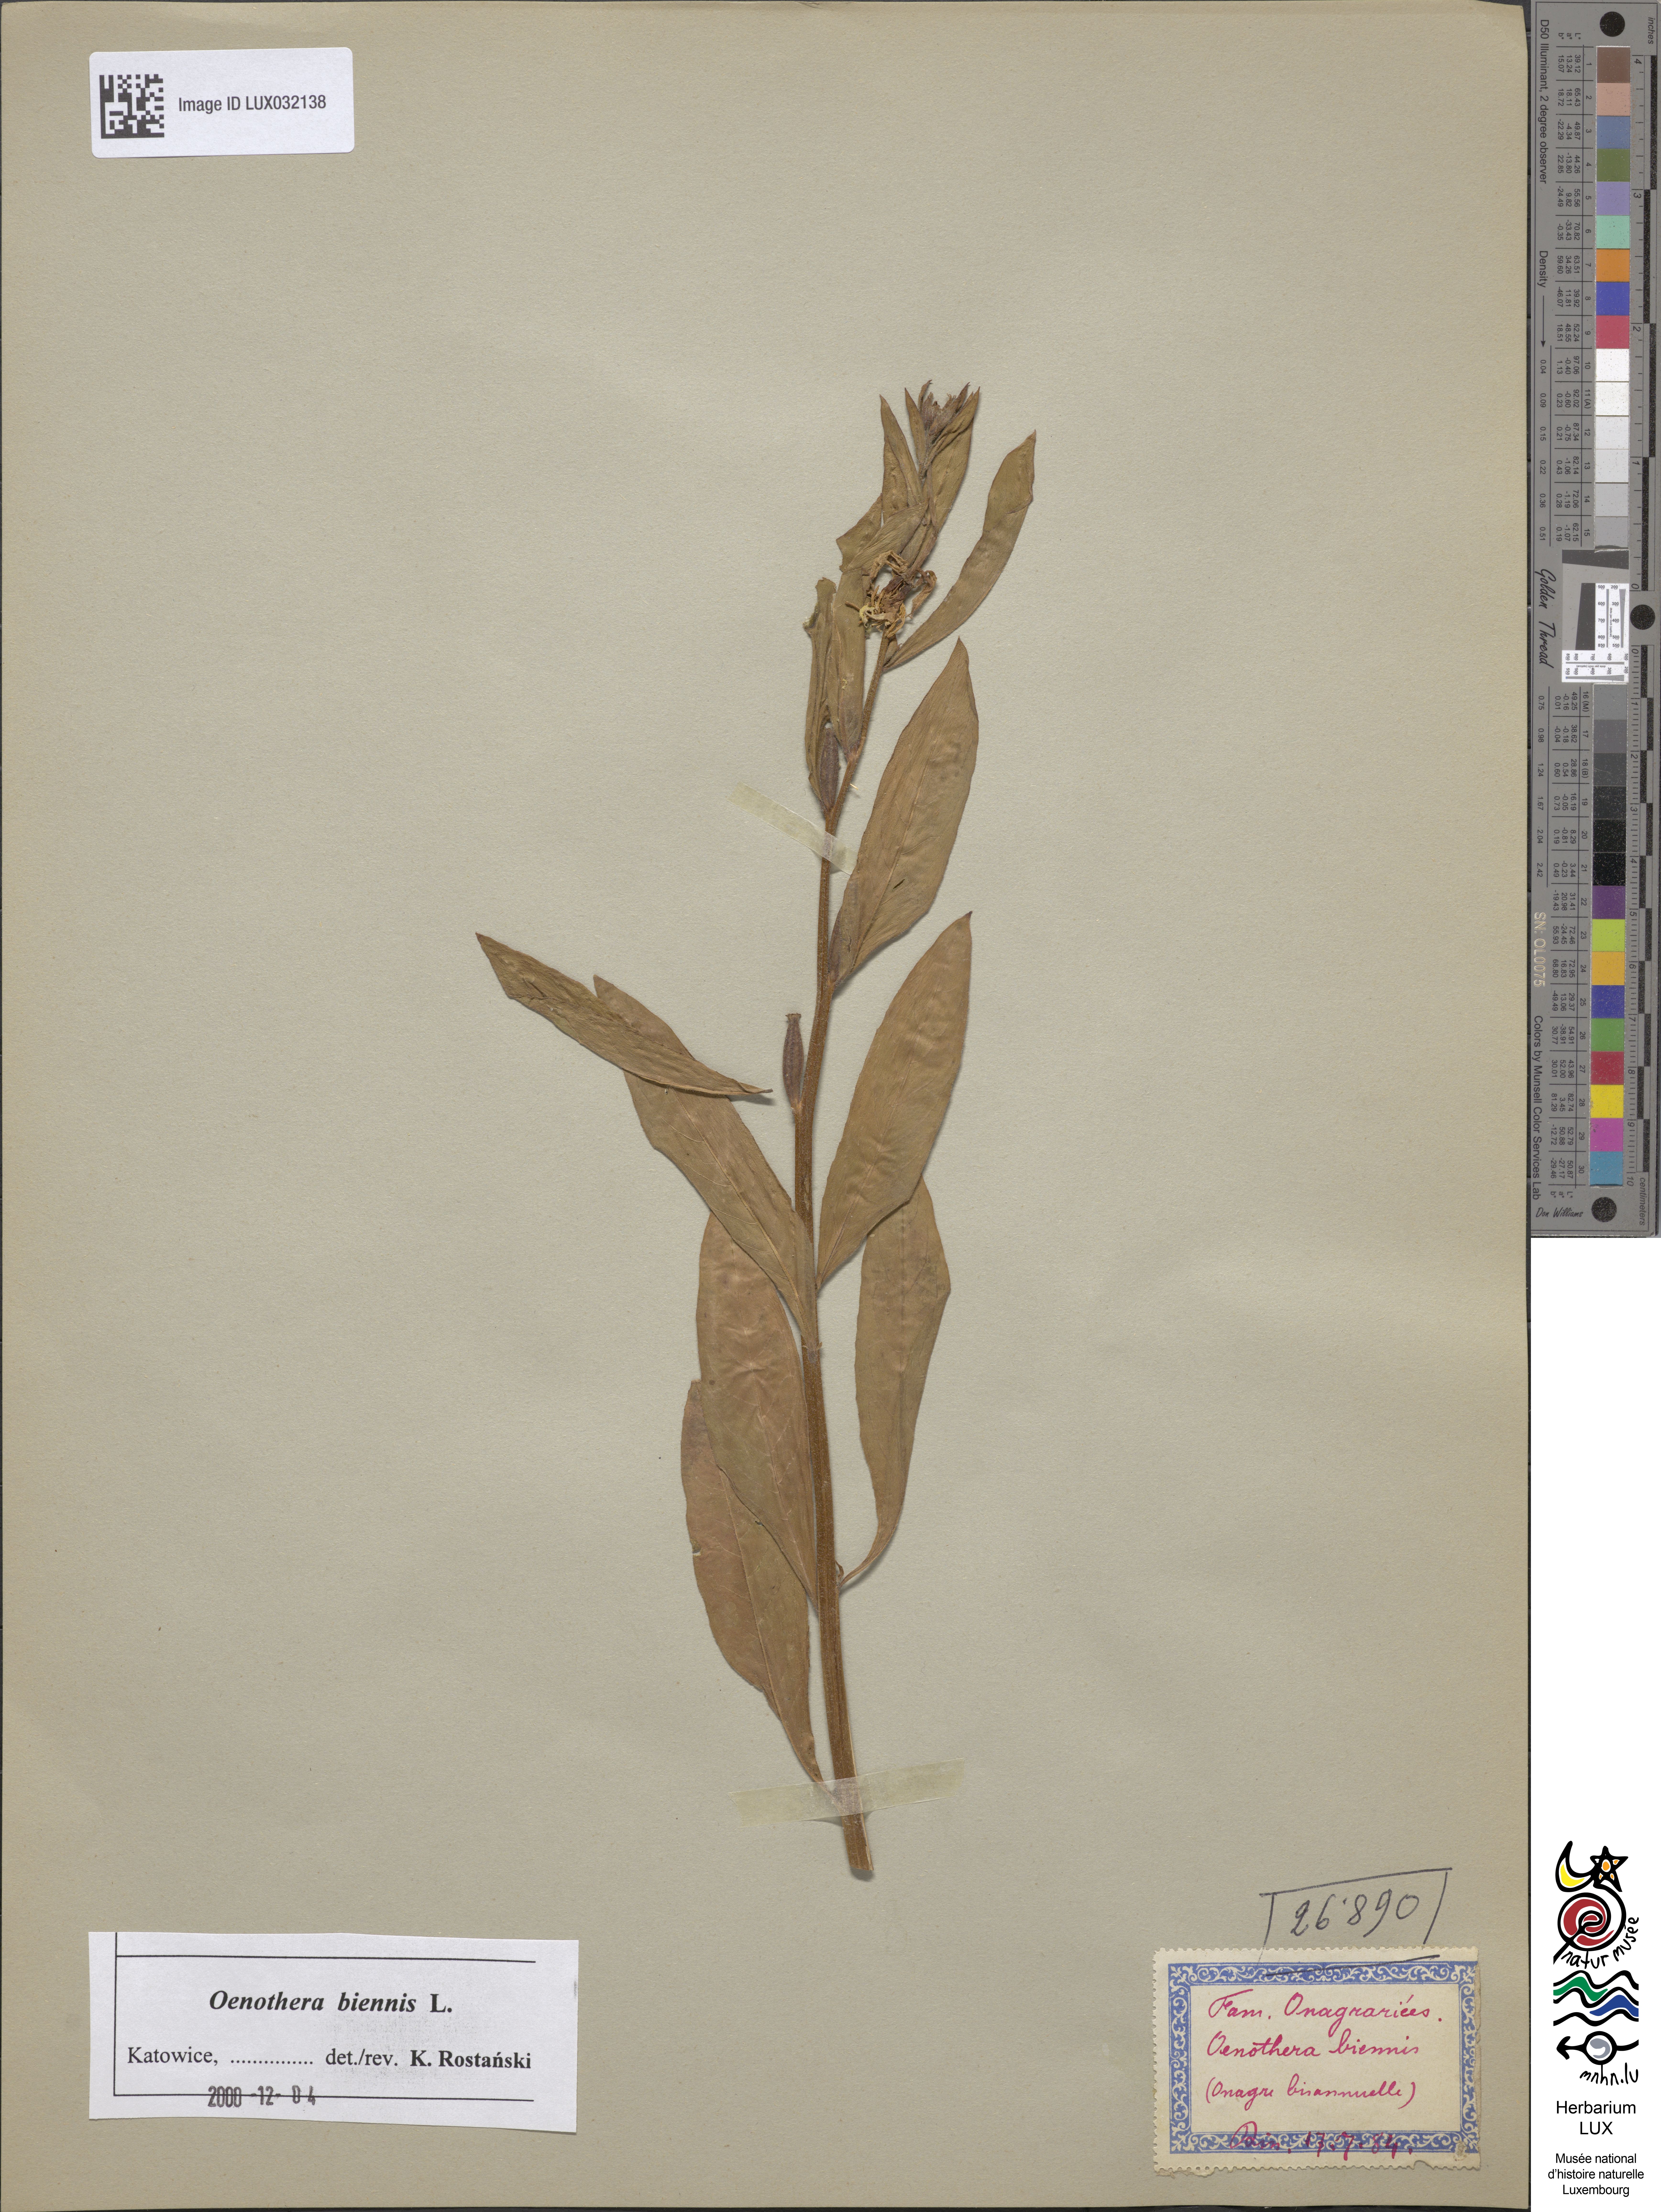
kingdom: Plantae
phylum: Tracheophyta
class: Magnoliopsida
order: Myrtales
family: Onagraceae
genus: Oenothera
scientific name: Oenothera biennis
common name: Common evening-primrose
